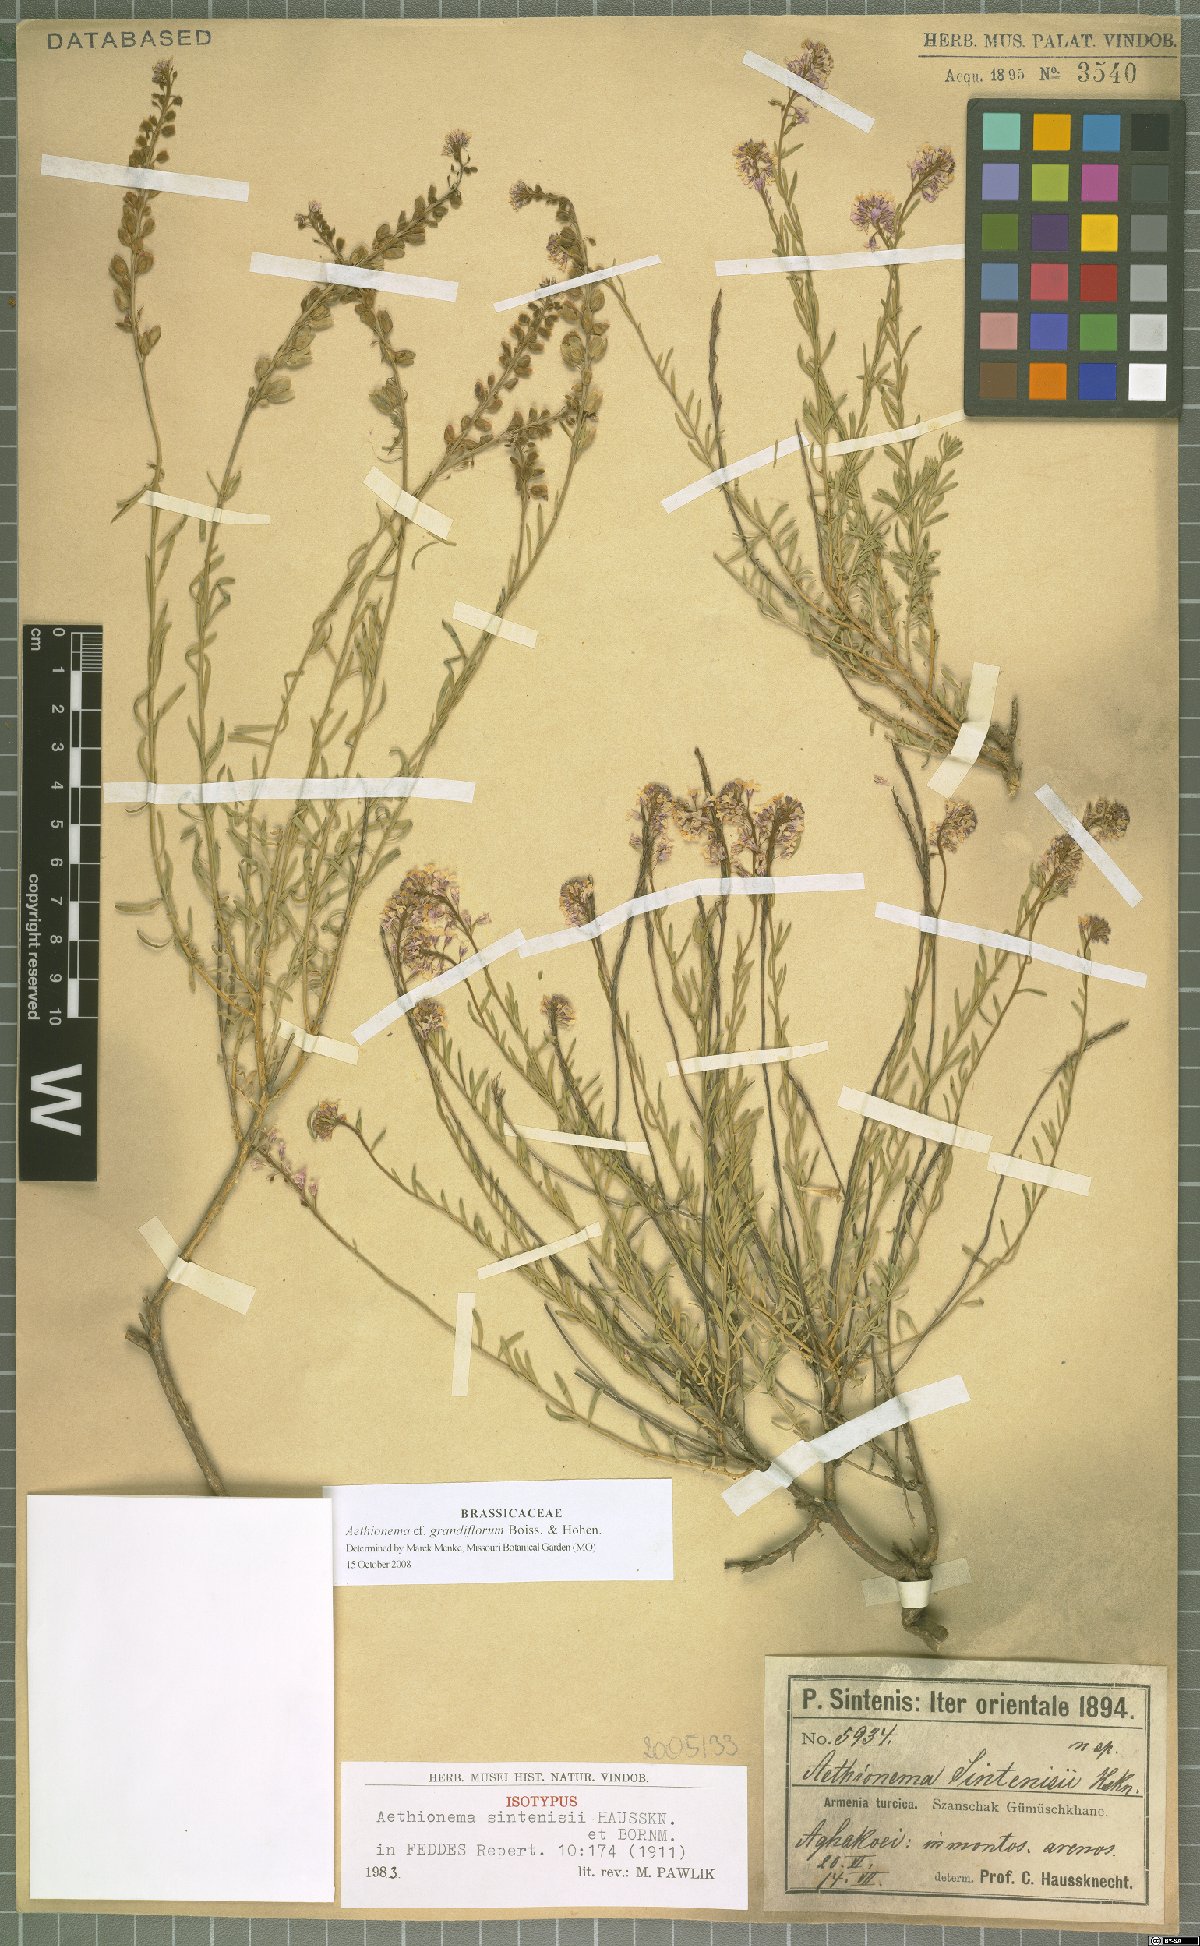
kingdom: Plantae
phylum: Tracheophyta
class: Magnoliopsida
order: Brassicales
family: Brassicaceae
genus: Aethionema
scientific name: Aethionema grandiflorum
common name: Persian stonecress
